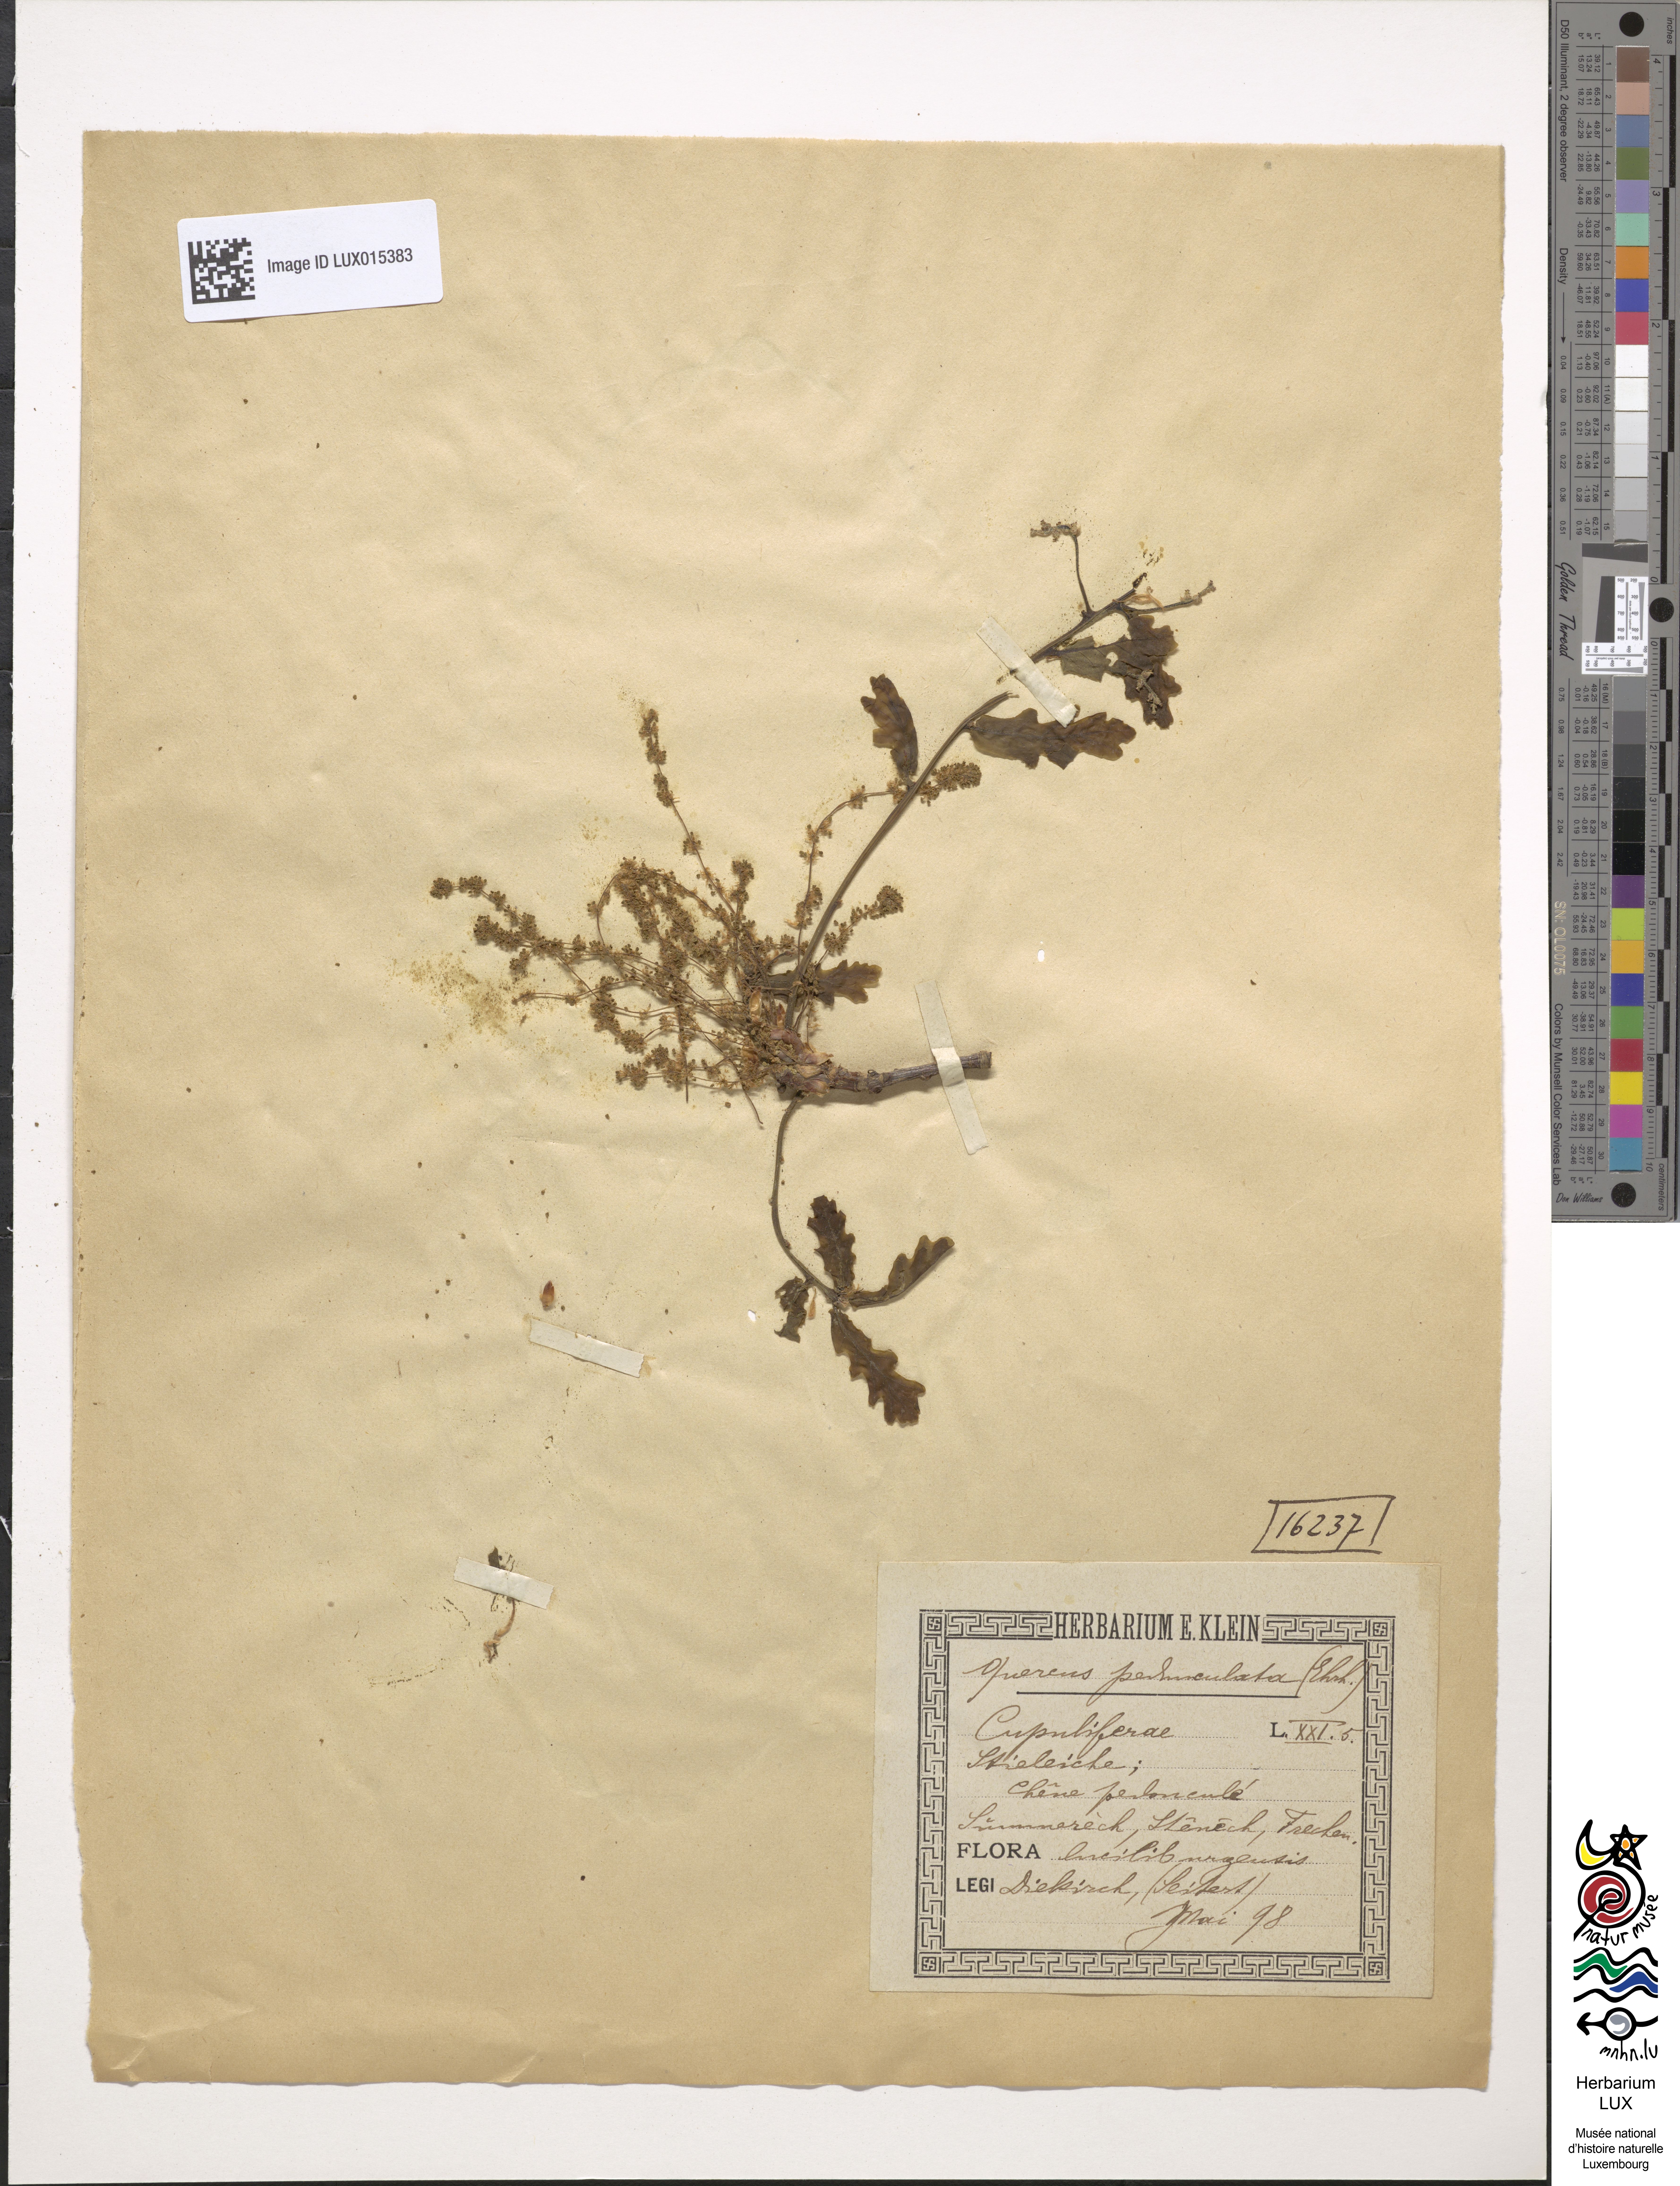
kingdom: Plantae
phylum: Tracheophyta
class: Magnoliopsida
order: Fagales
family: Fagaceae
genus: Quercus
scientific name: Quercus robur
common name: Pedunculate oak
